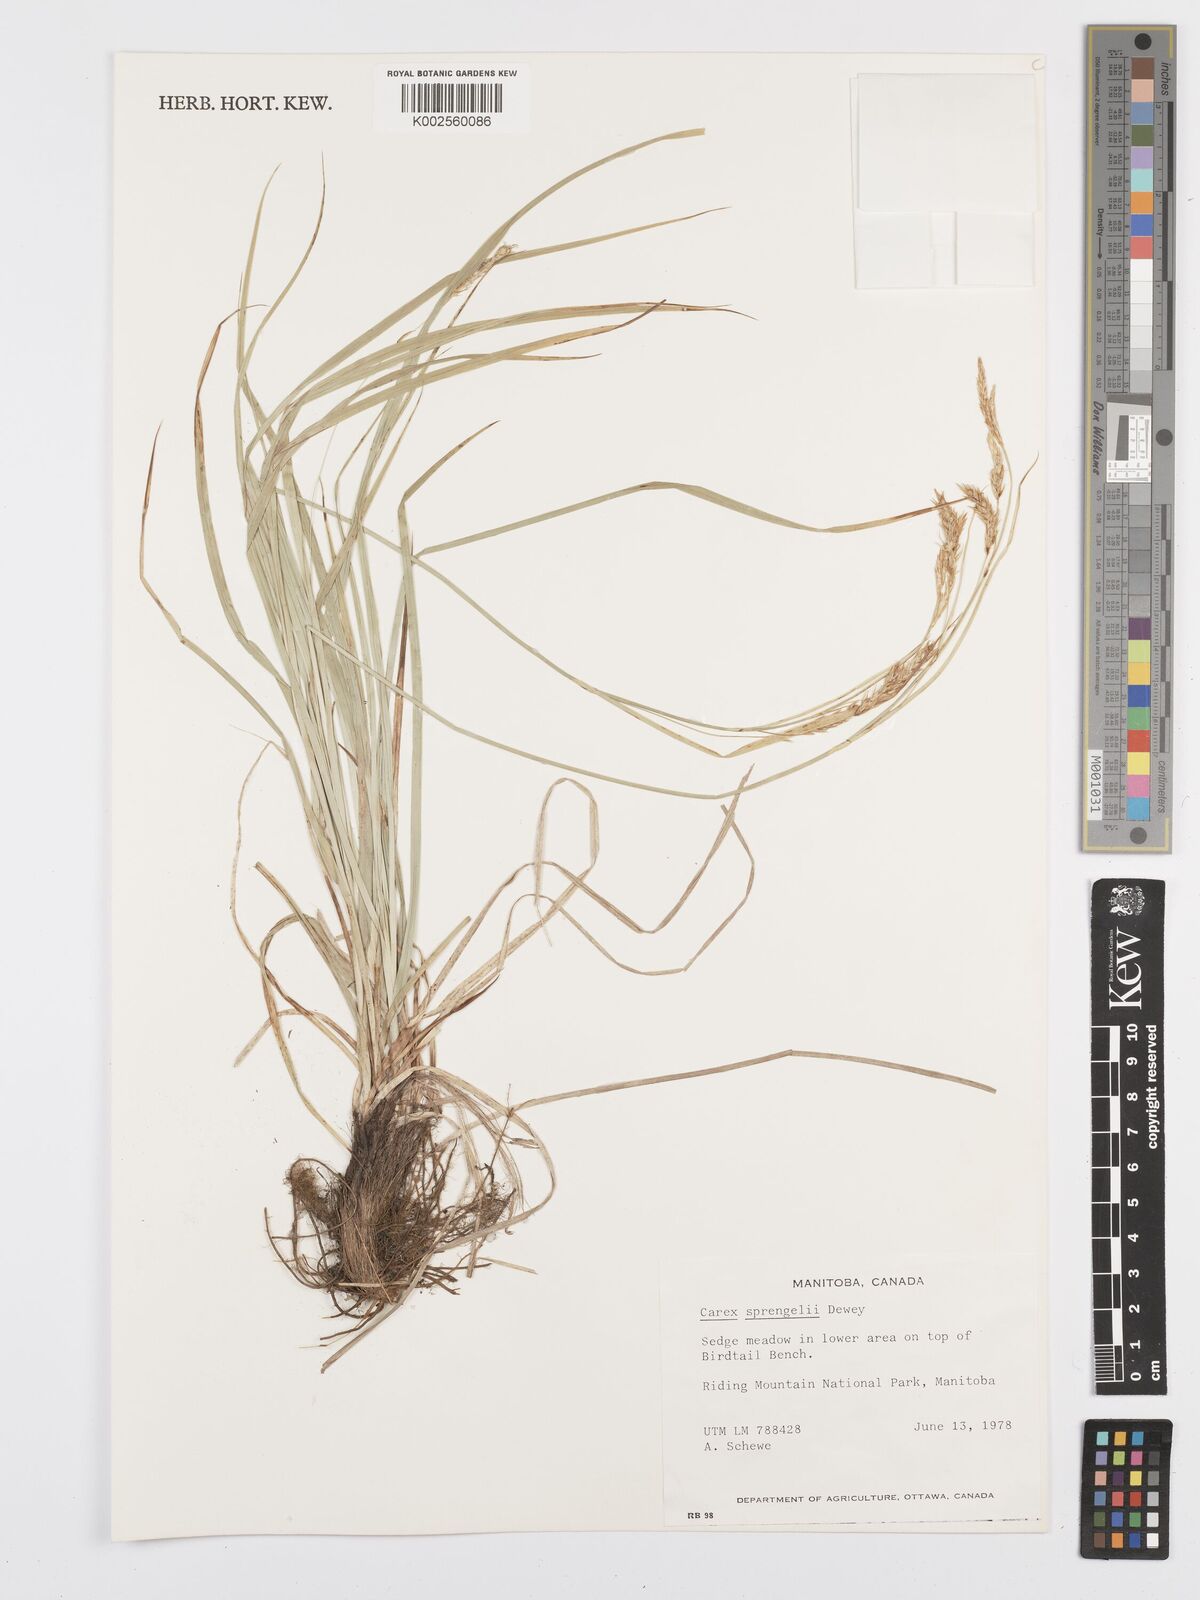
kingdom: Plantae
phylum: Tracheophyta
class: Liliopsida
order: Poales
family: Cyperaceae
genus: Carex
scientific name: Carex sprengelii
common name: Long-beaked sedge
